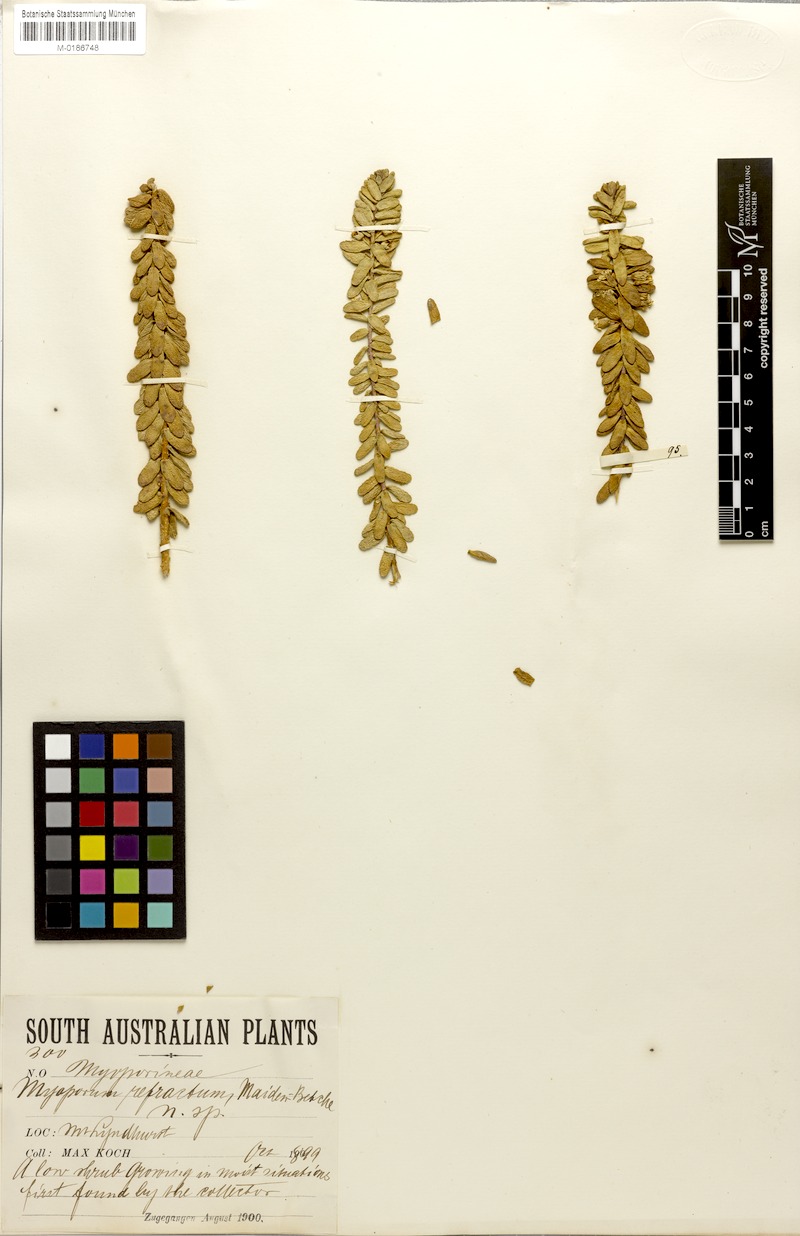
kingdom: Plantae
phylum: Tracheophyta
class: Magnoliopsida
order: Lamiales
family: Scrophulariaceae
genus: Myoporum
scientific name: Myoporum brevipes
